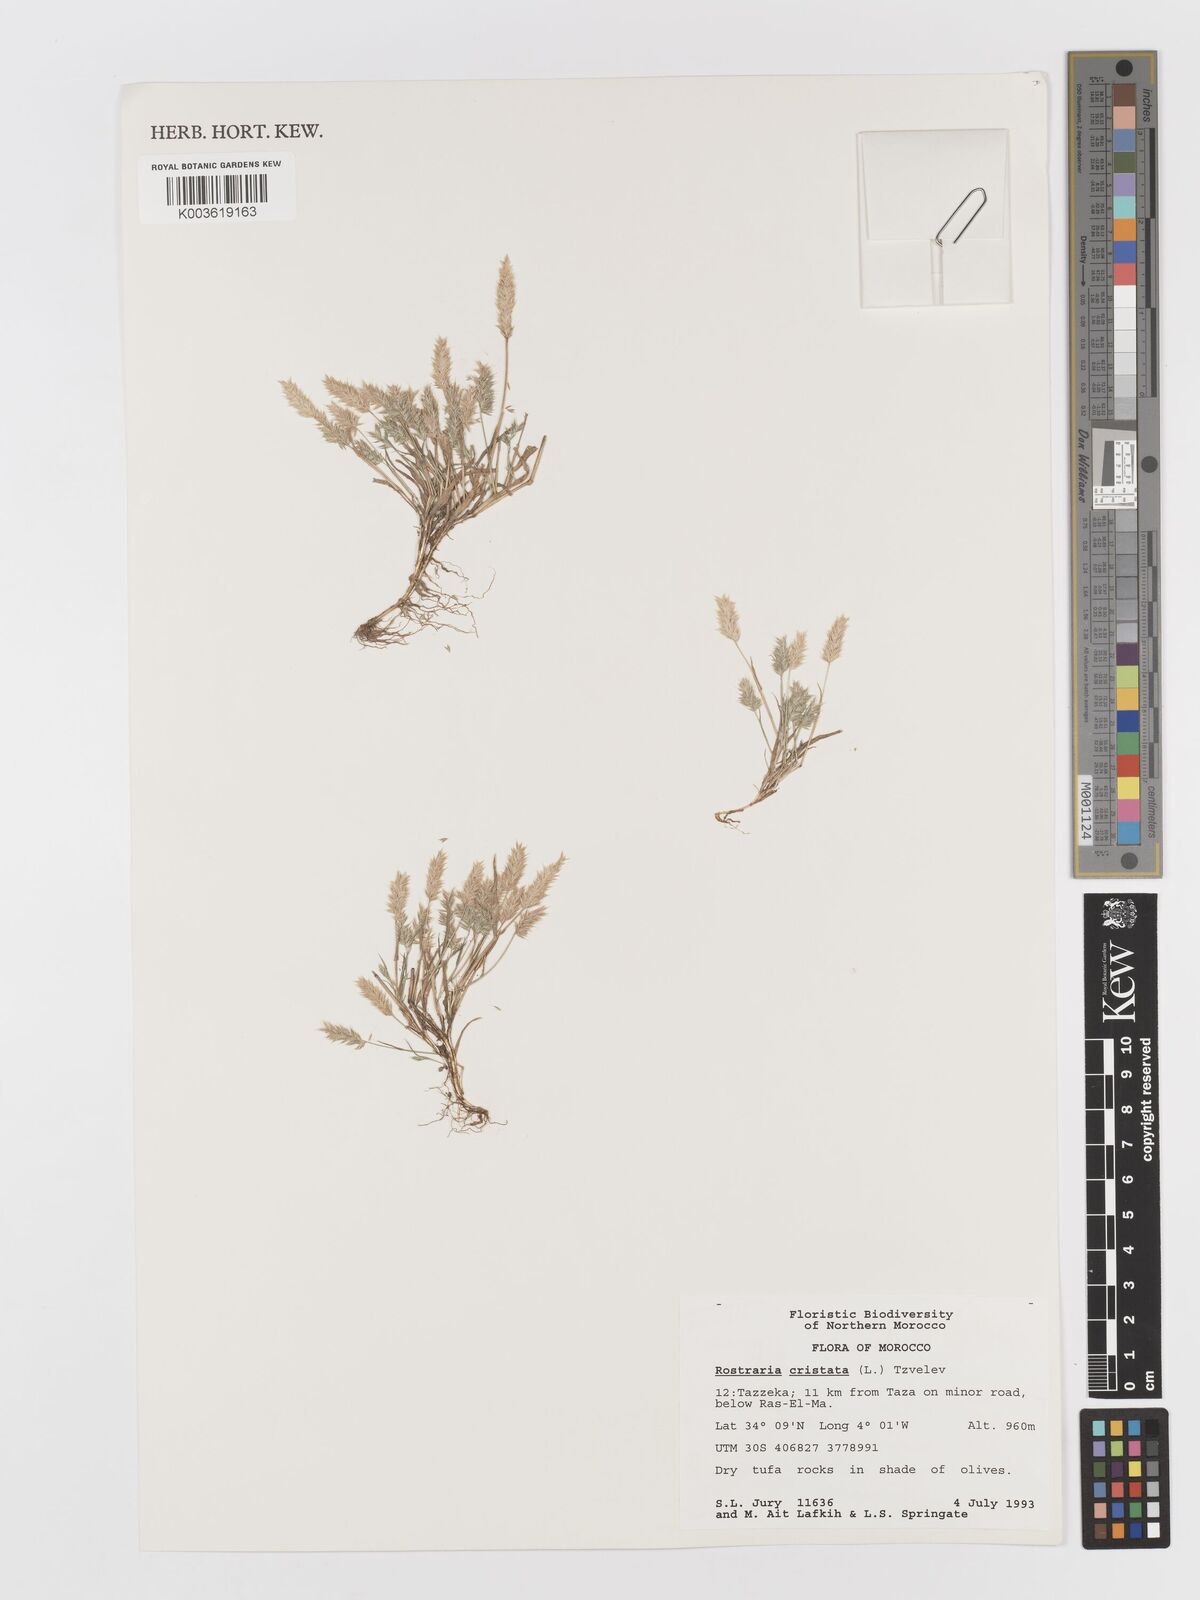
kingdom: Plantae
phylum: Tracheophyta
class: Liliopsida
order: Poales
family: Poaceae
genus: Rostraria
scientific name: Rostraria cristata
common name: Mediterranean hair-grass
